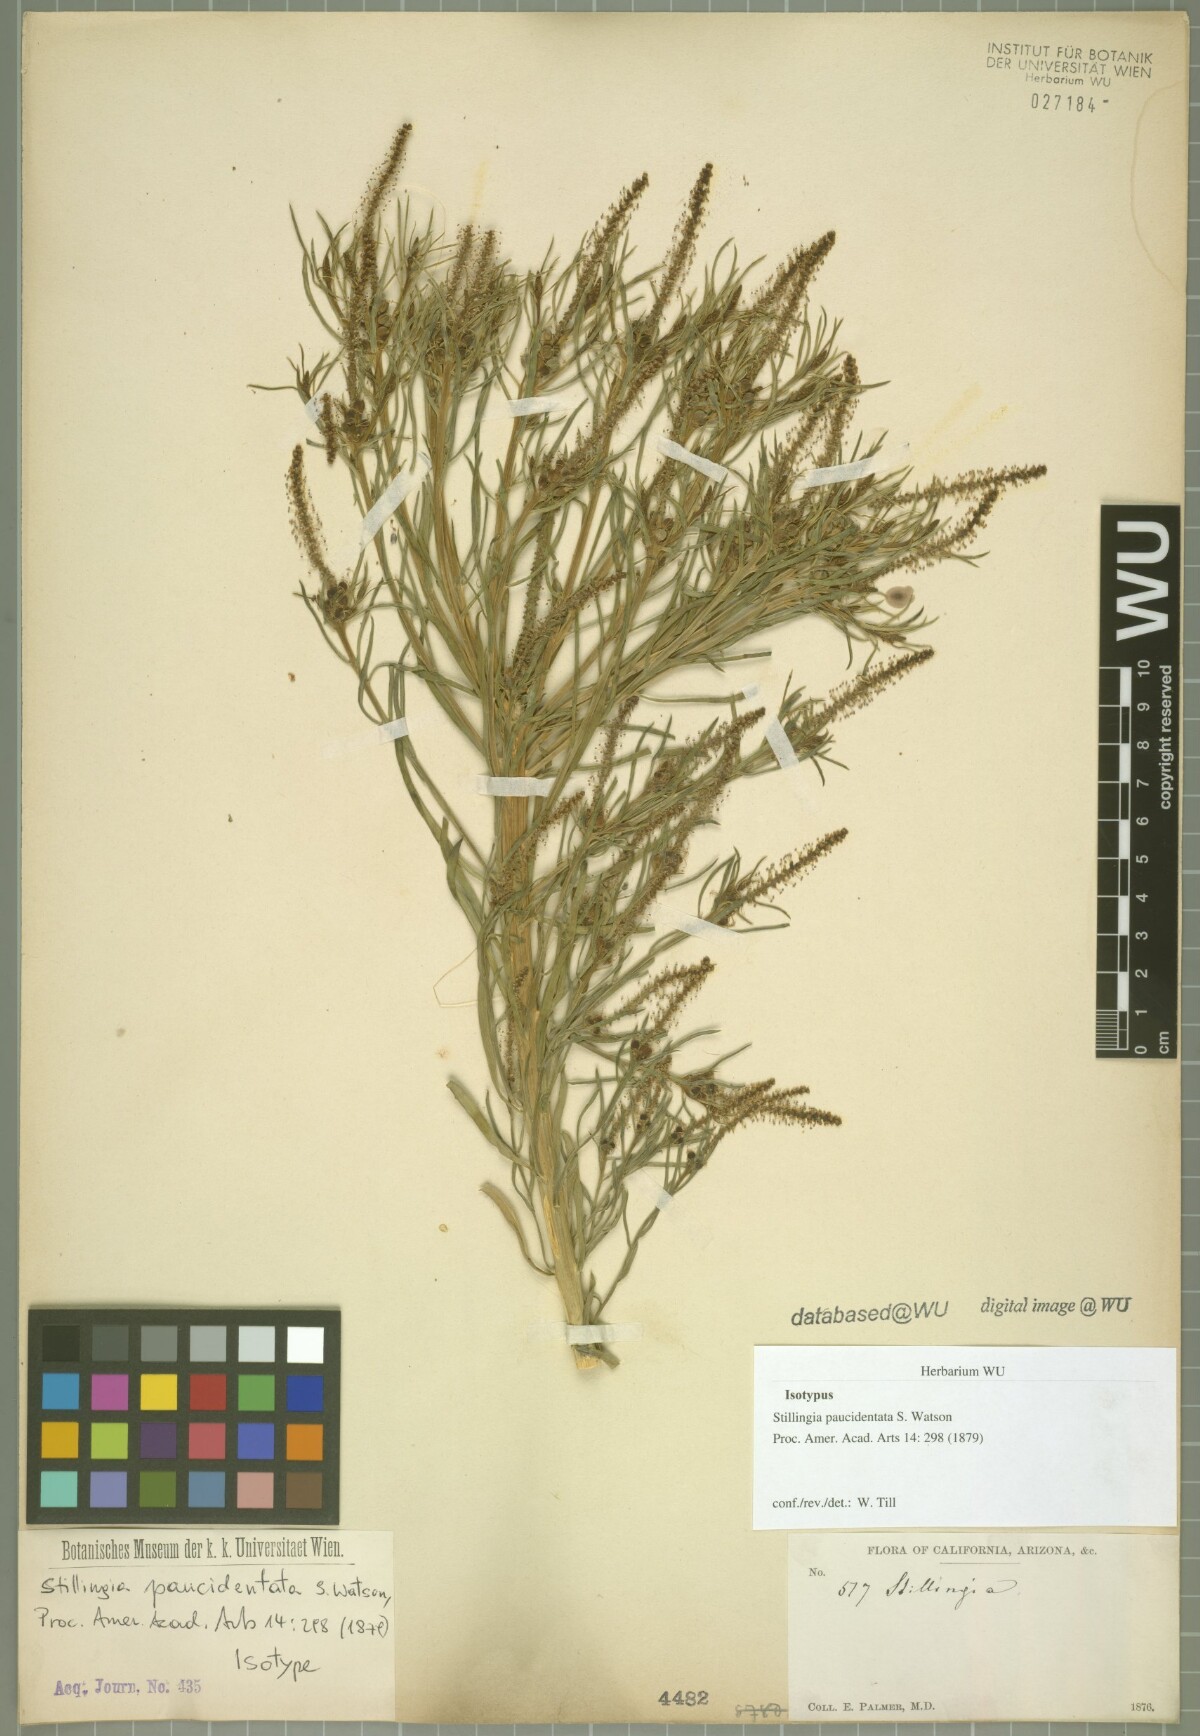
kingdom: Plantae
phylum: Tracheophyta
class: Magnoliopsida
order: Malpighiales
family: Euphorbiaceae
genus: Stillingia
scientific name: Stillingia paucidentata
